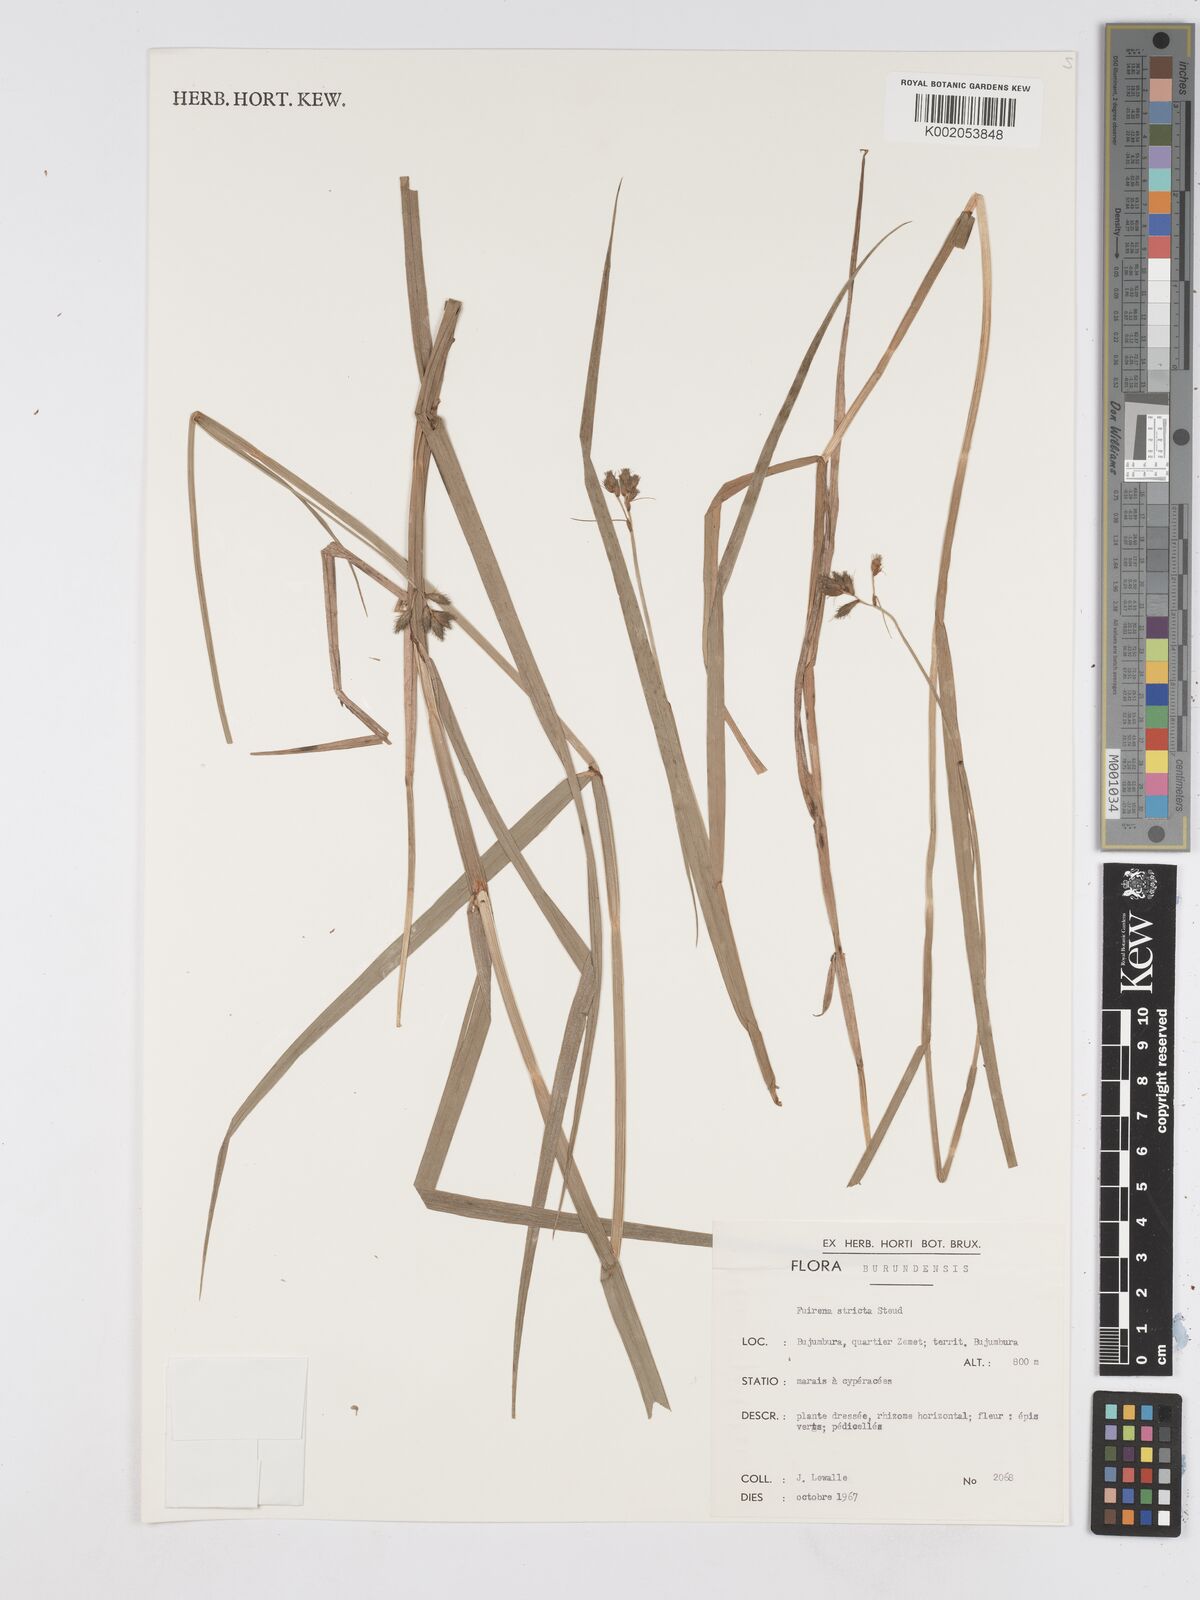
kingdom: Plantae
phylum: Tracheophyta
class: Liliopsida
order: Poales
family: Cyperaceae
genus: Fuirena
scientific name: Fuirena stricta
